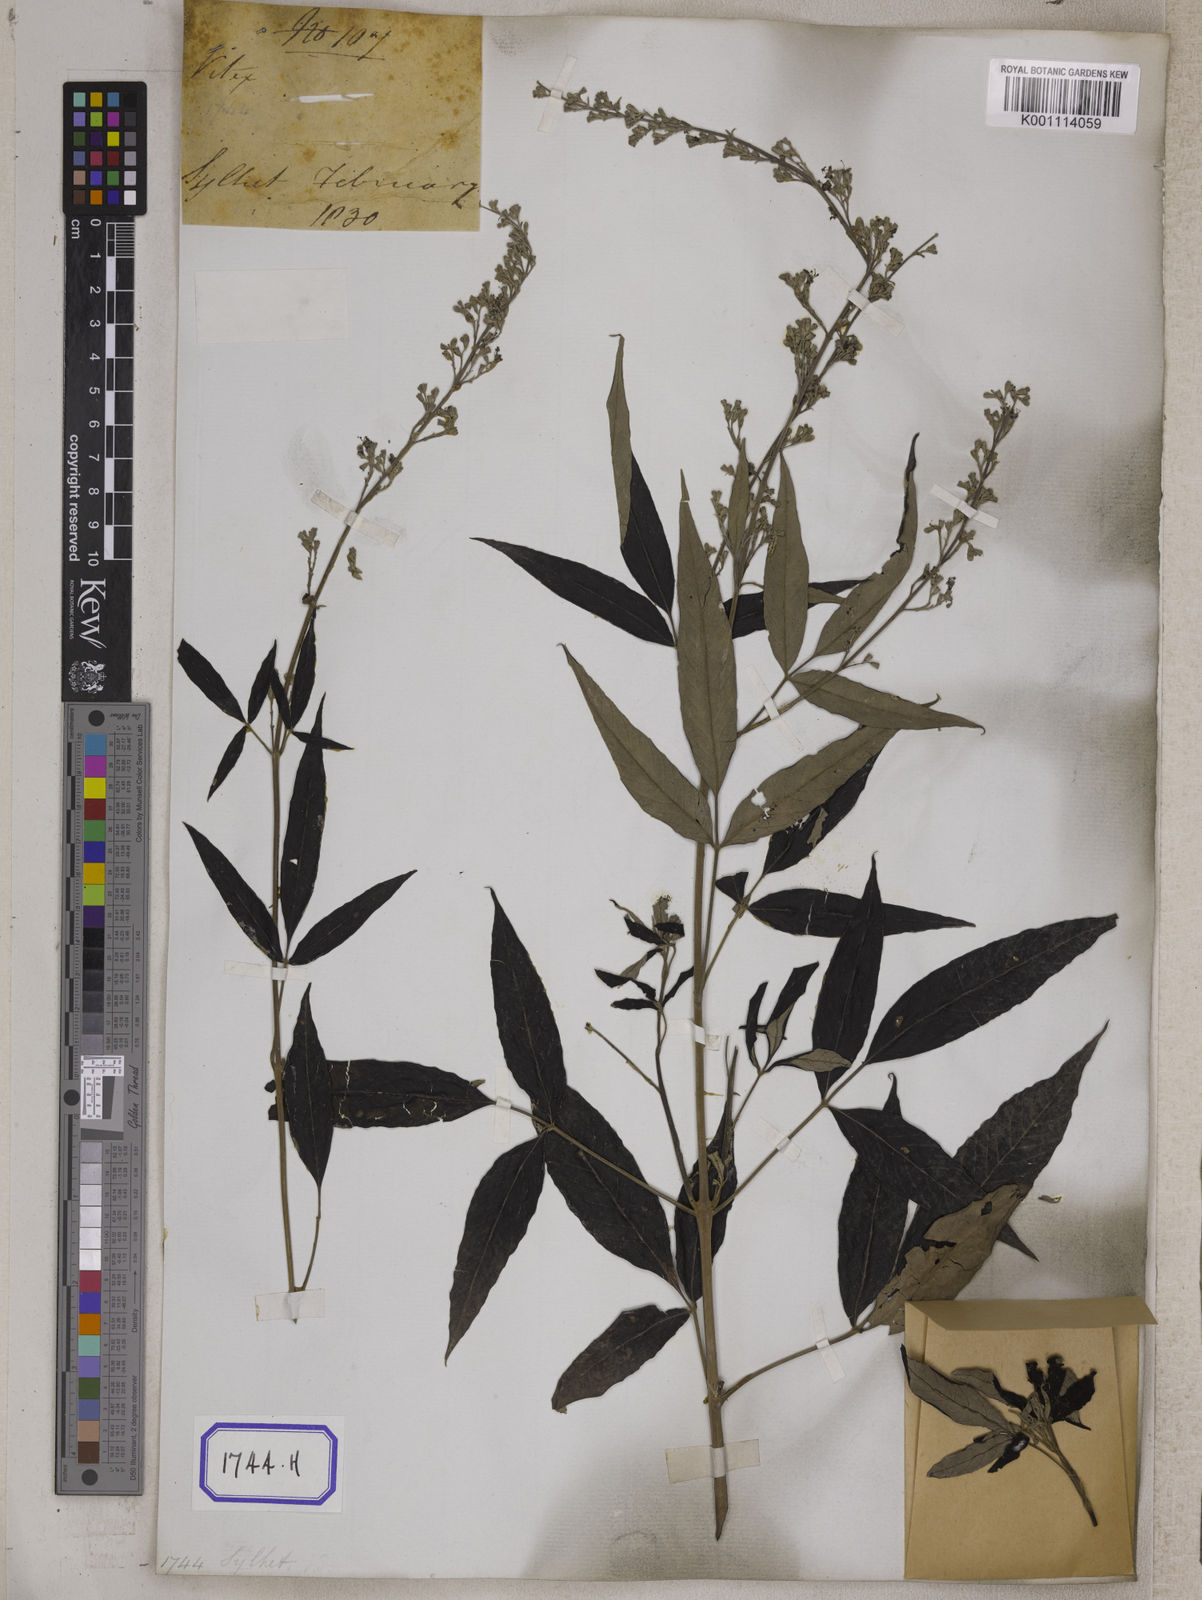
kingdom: Plantae
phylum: Tracheophyta
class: Magnoliopsida
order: Lamiales
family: Lamiaceae
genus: Vitex
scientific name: Vitex negundo
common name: Chinese chastetree
